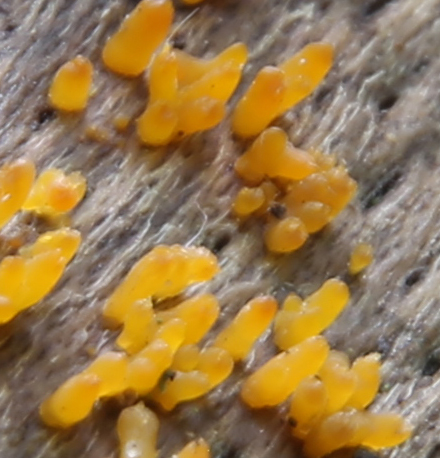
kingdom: Fungi
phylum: Basidiomycota
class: Dacrymycetes
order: Dacrymycetales
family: Dacrymycetaceae
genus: Calocera
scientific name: Calocera cornea
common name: liden guldgaffel
